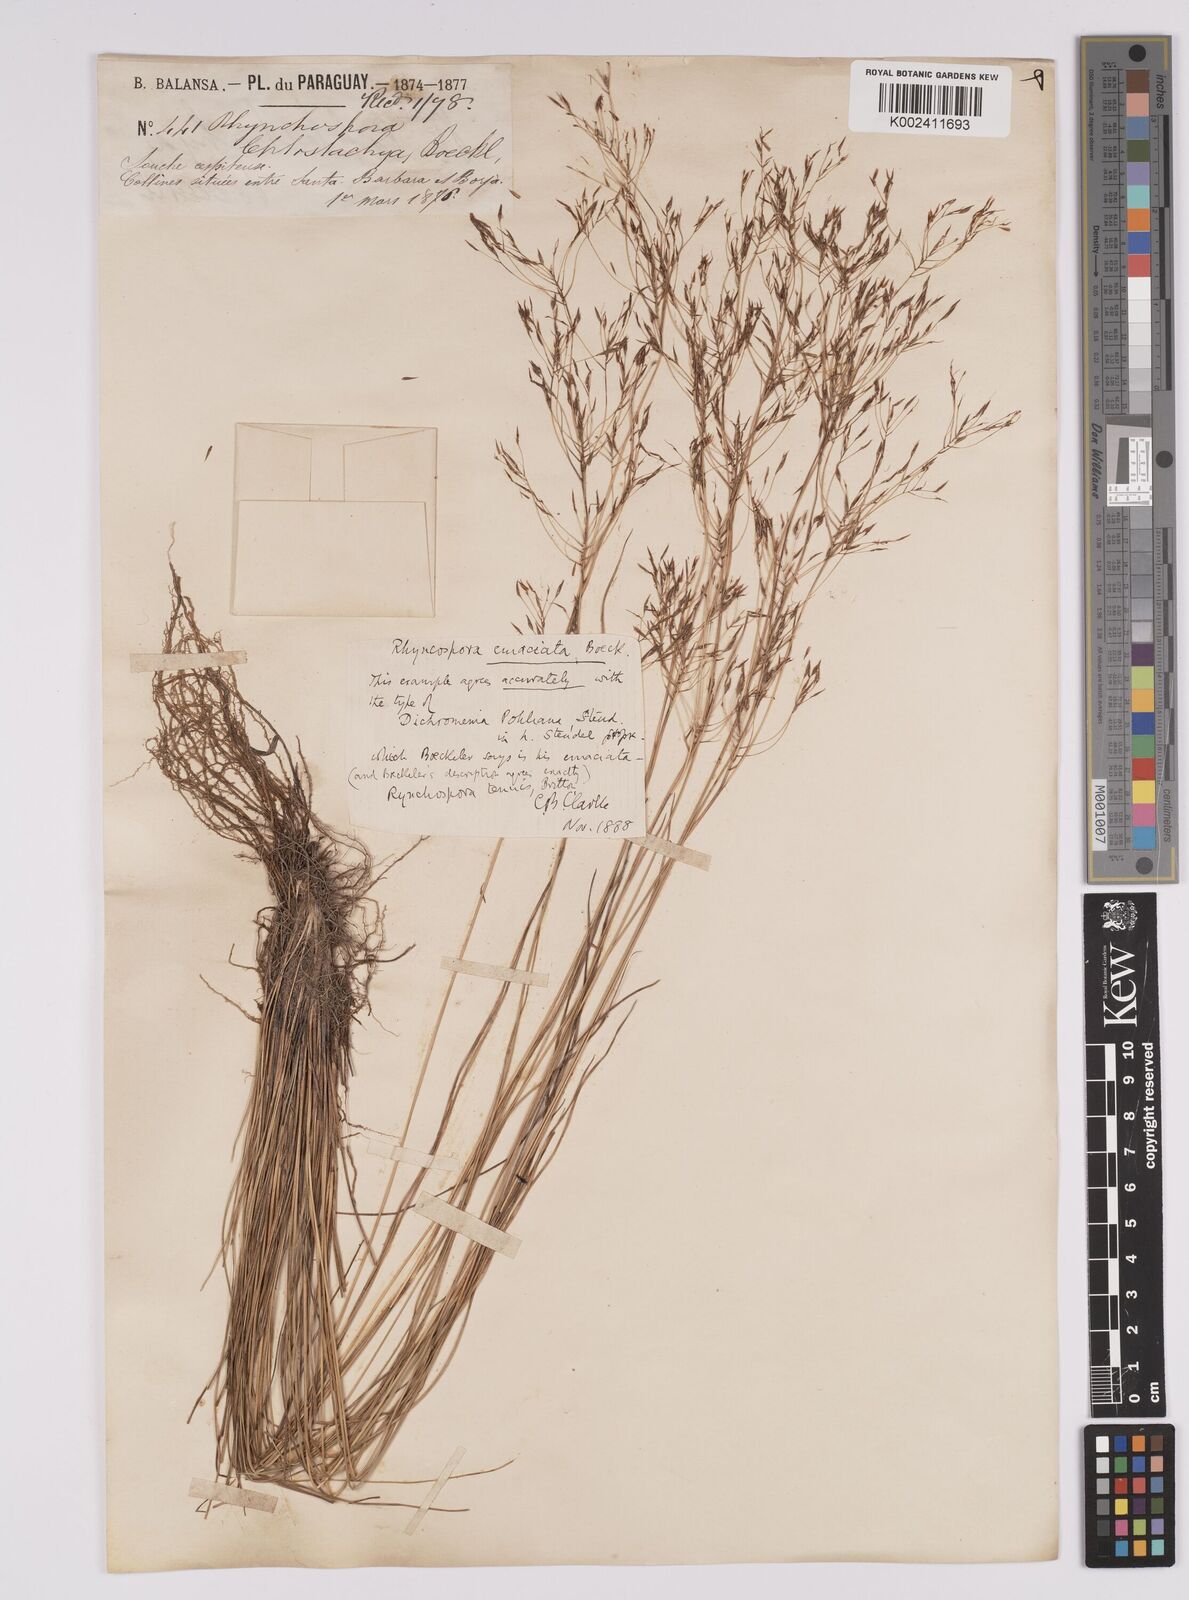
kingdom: Plantae
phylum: Tracheophyta
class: Liliopsida
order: Poales
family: Cyperaceae
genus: Rhynchospora
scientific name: Rhynchospora tenuis
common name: Quill beaksedge
